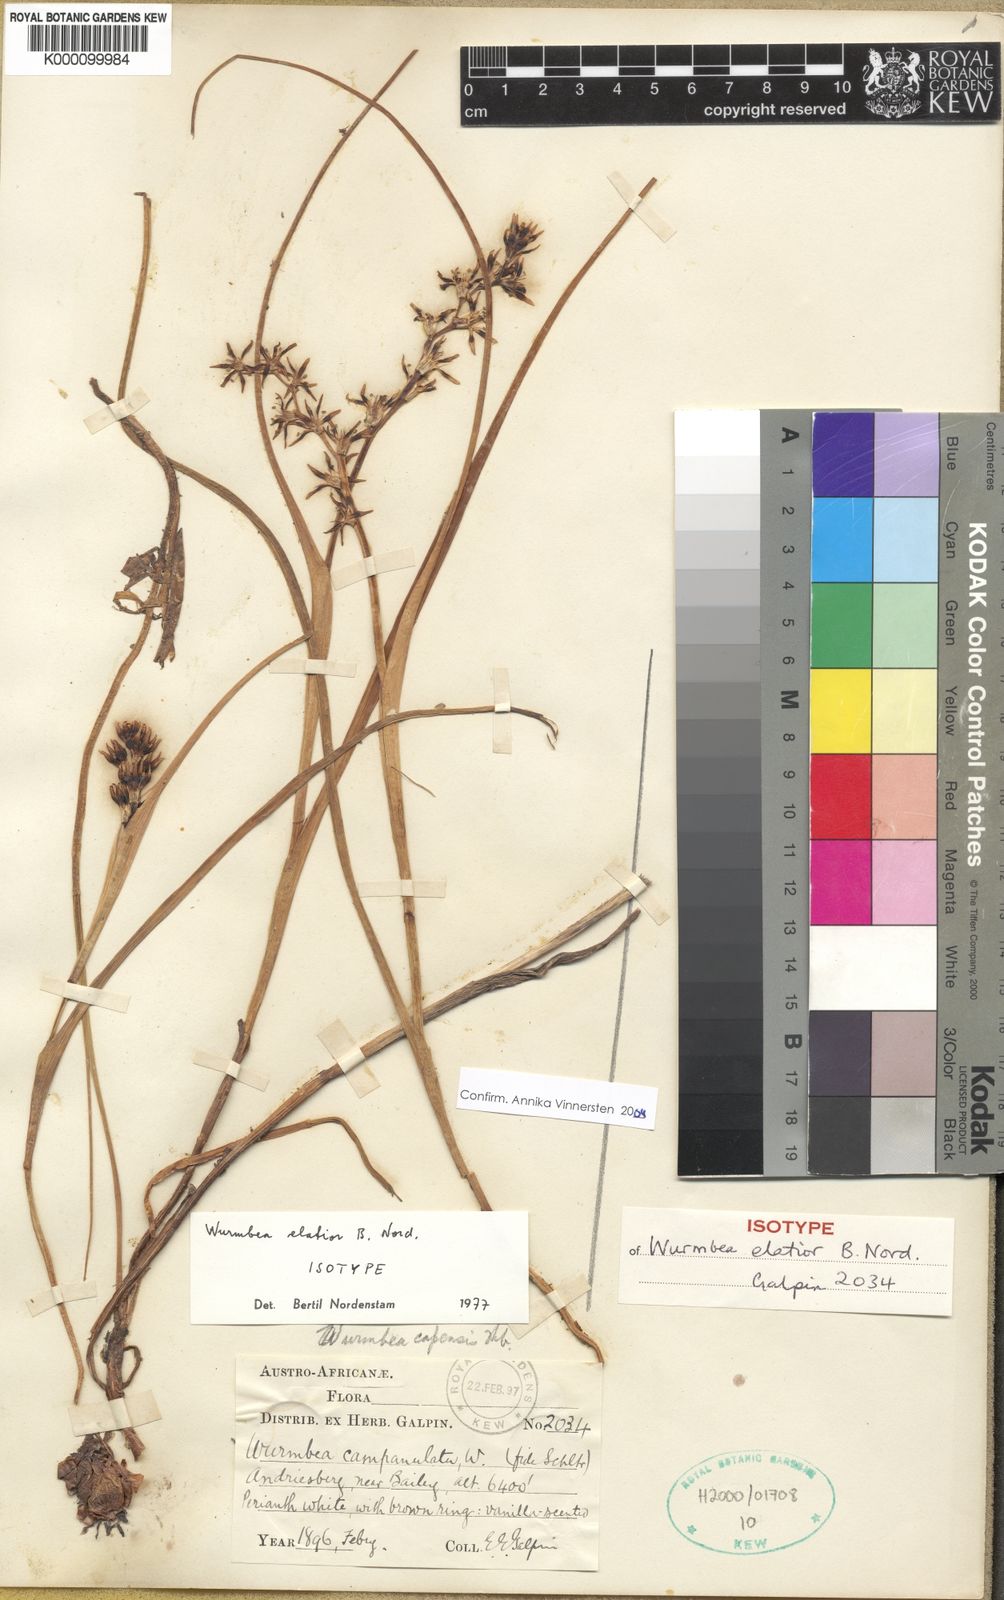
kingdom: Plantae
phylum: Tracheophyta
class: Liliopsida
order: Liliales
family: Colchicaceae
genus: Wurmbea
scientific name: Wurmbea elatior
